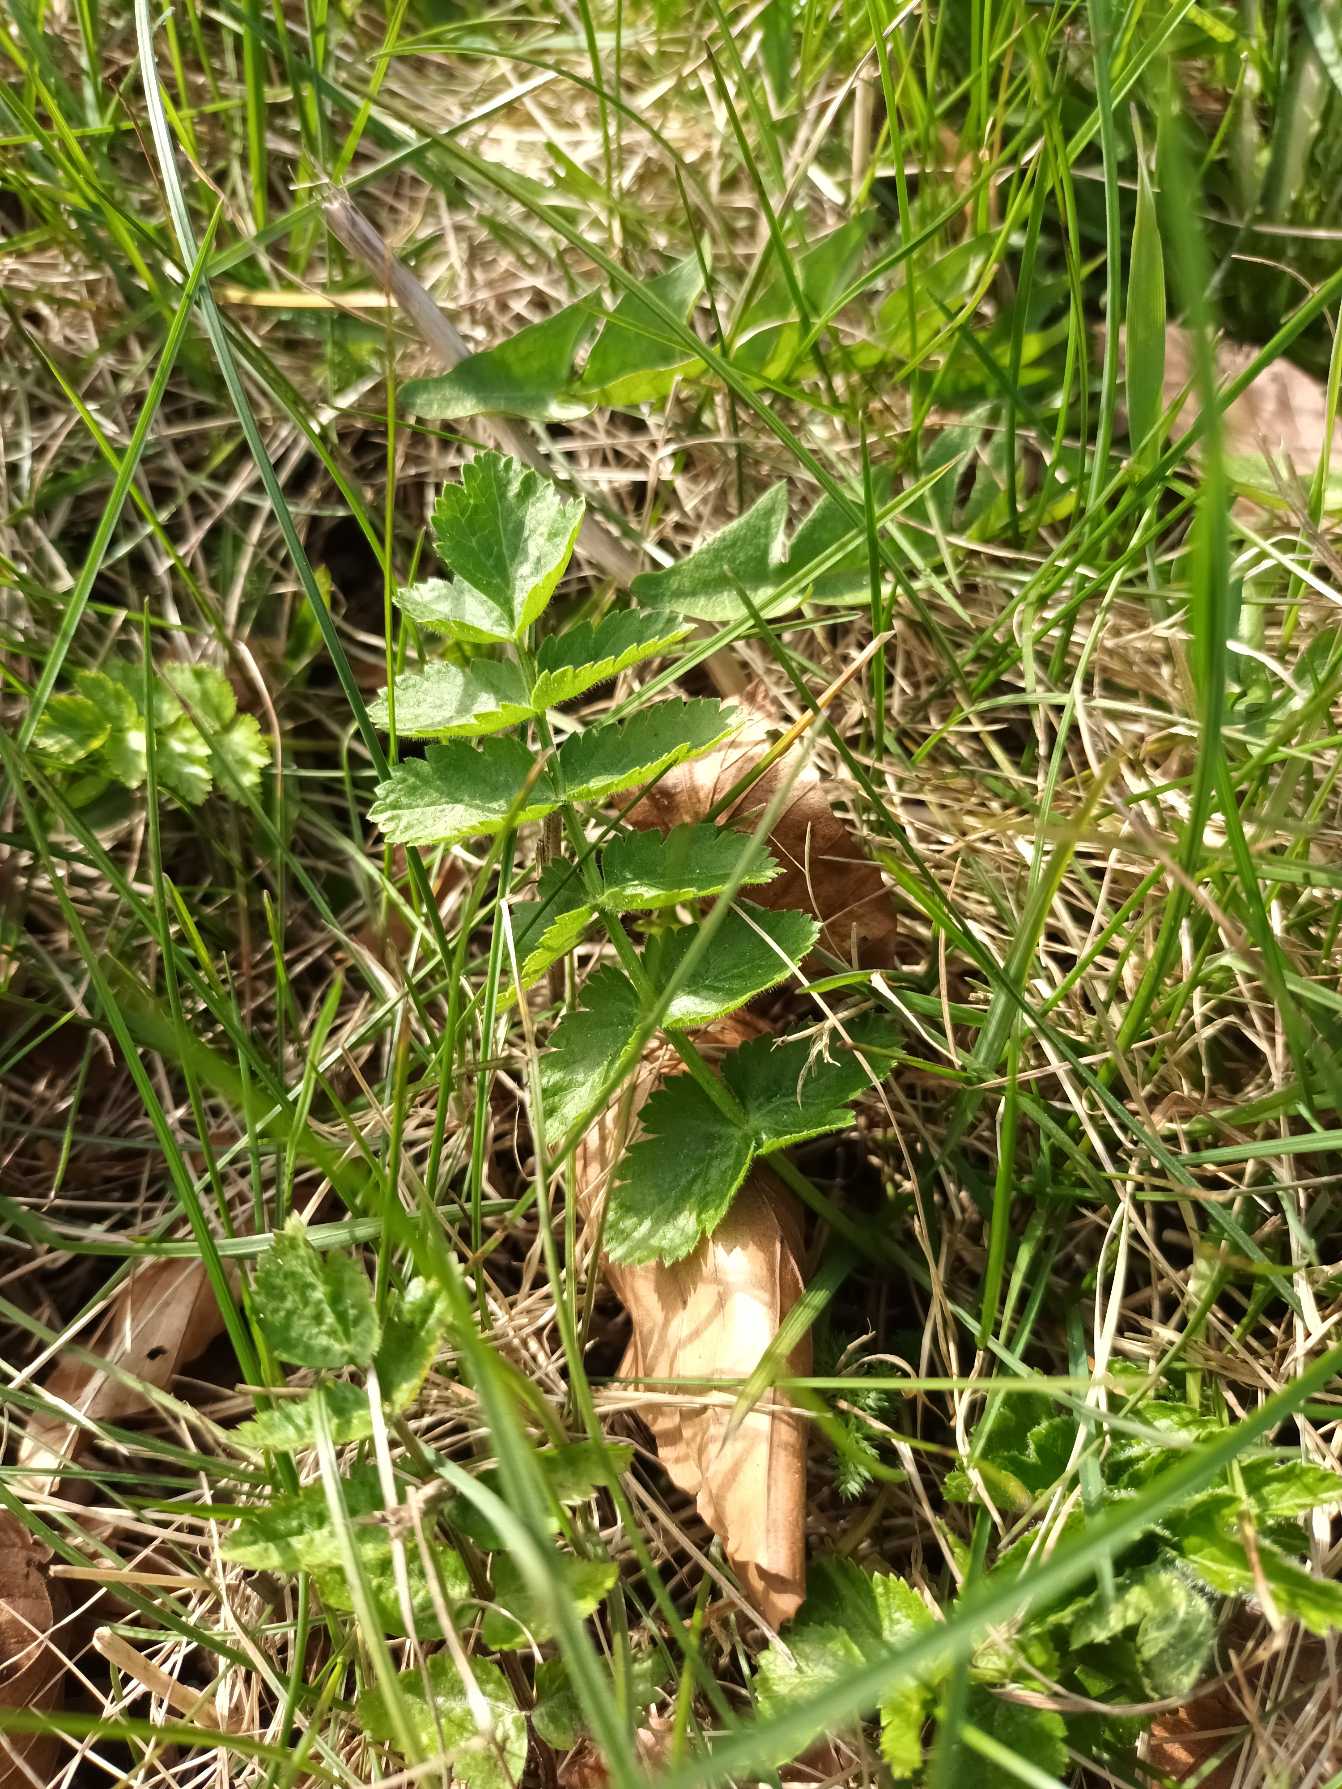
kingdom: Plantae
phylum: Tracheophyta
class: Magnoliopsida
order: Apiales
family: Apiaceae
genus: Pastinaca
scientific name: Pastinaca sativa
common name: Pastinak
